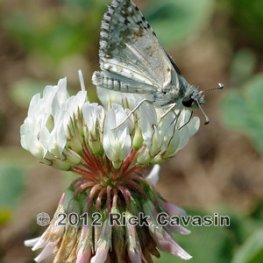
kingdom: Animalia
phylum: Arthropoda
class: Insecta
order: Lepidoptera
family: Hesperiidae
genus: Pyrgus
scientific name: Pyrgus communis
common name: Common Checkered-Skipper
